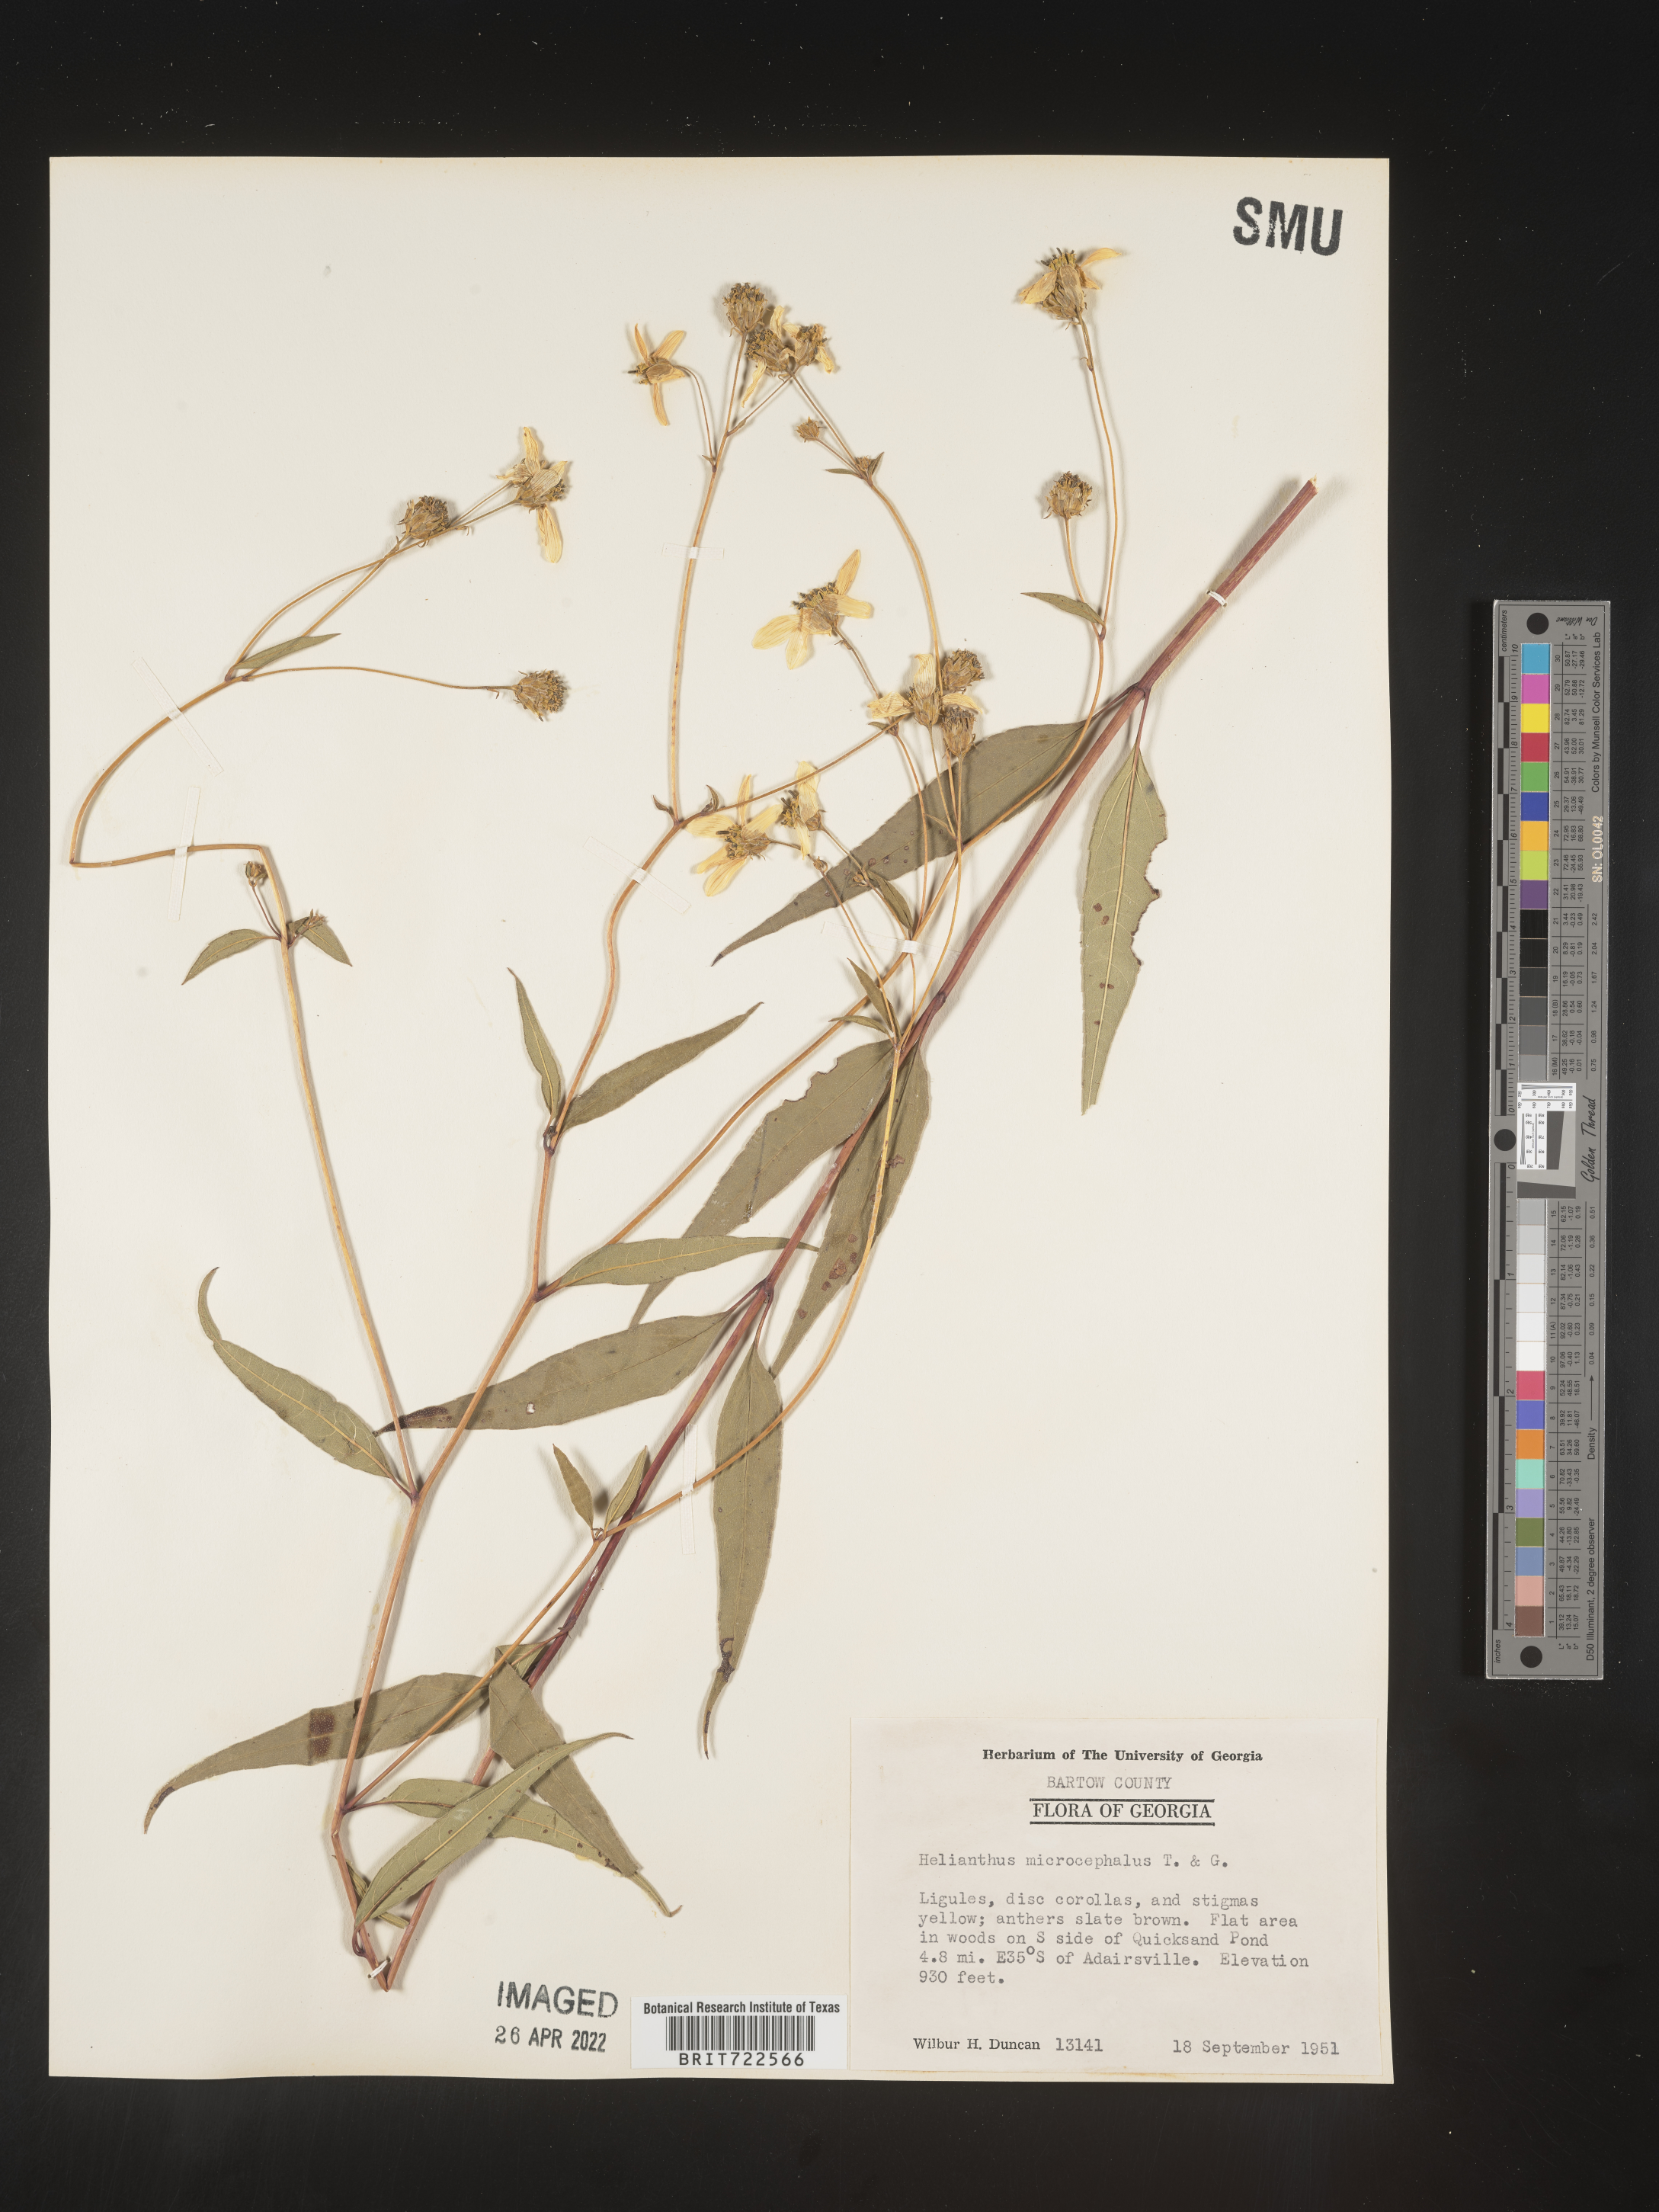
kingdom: Plantae
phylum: Tracheophyta
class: Magnoliopsida
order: Asterales
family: Asteraceae
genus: Helianthus
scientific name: Helianthus microcephalus
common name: Woodland sunflower
